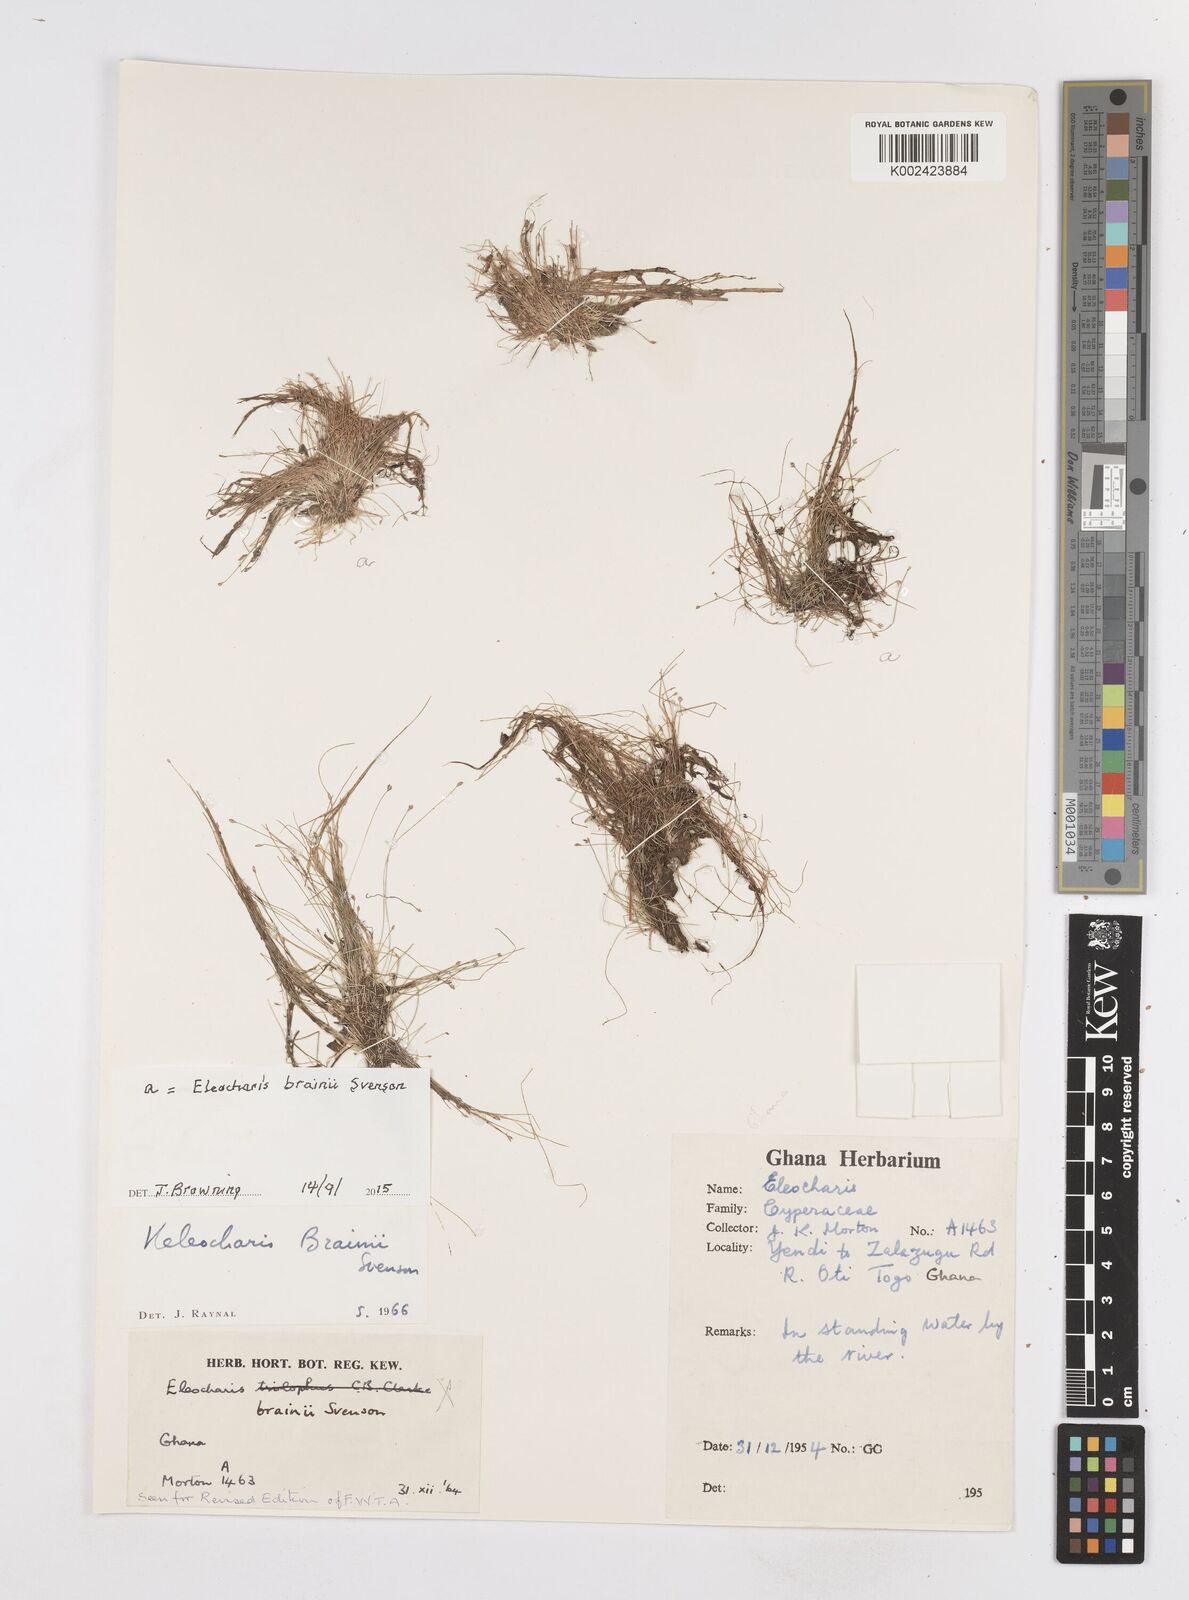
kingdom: Plantae
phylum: Tracheophyta
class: Liliopsida
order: Poales
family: Cyperaceae
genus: Eleocharis
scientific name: Eleocharis brainii
